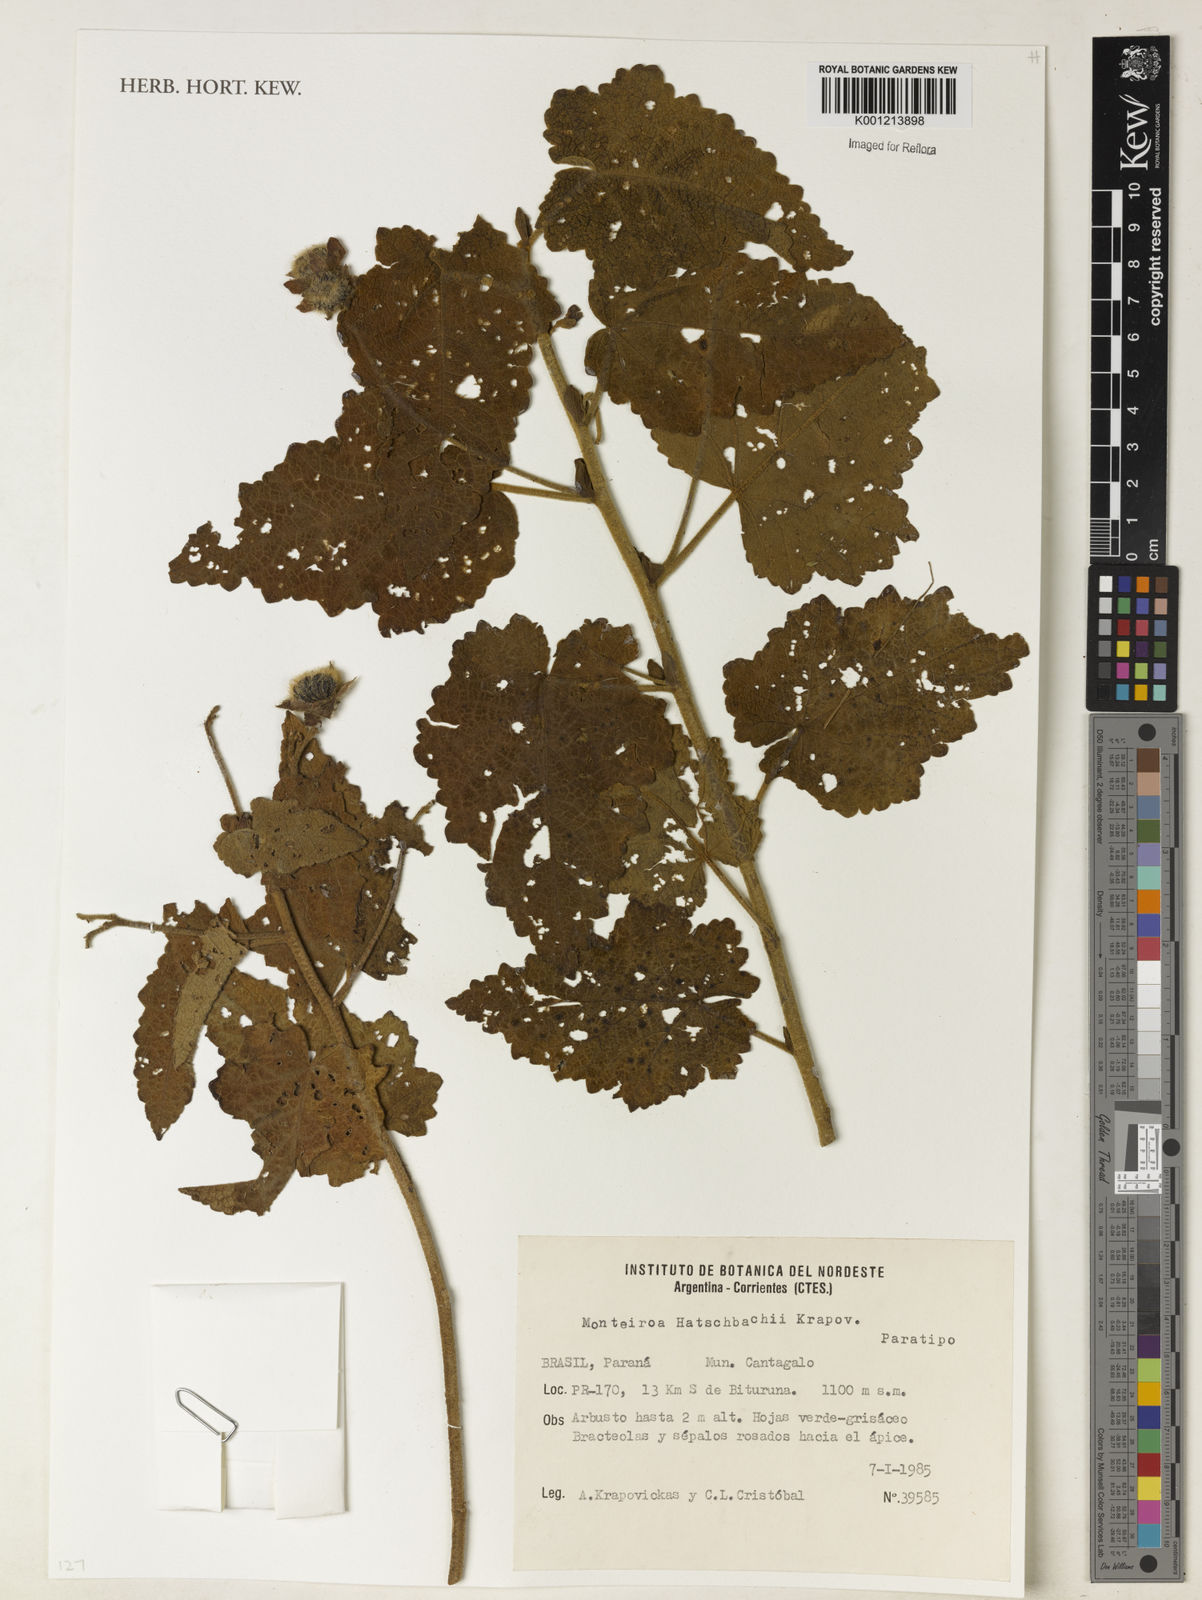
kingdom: Plantae
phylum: Tracheophyta
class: Magnoliopsida
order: Malvales
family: Malvaceae
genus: Monteiroa
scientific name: Monteiroa hatschbachii
